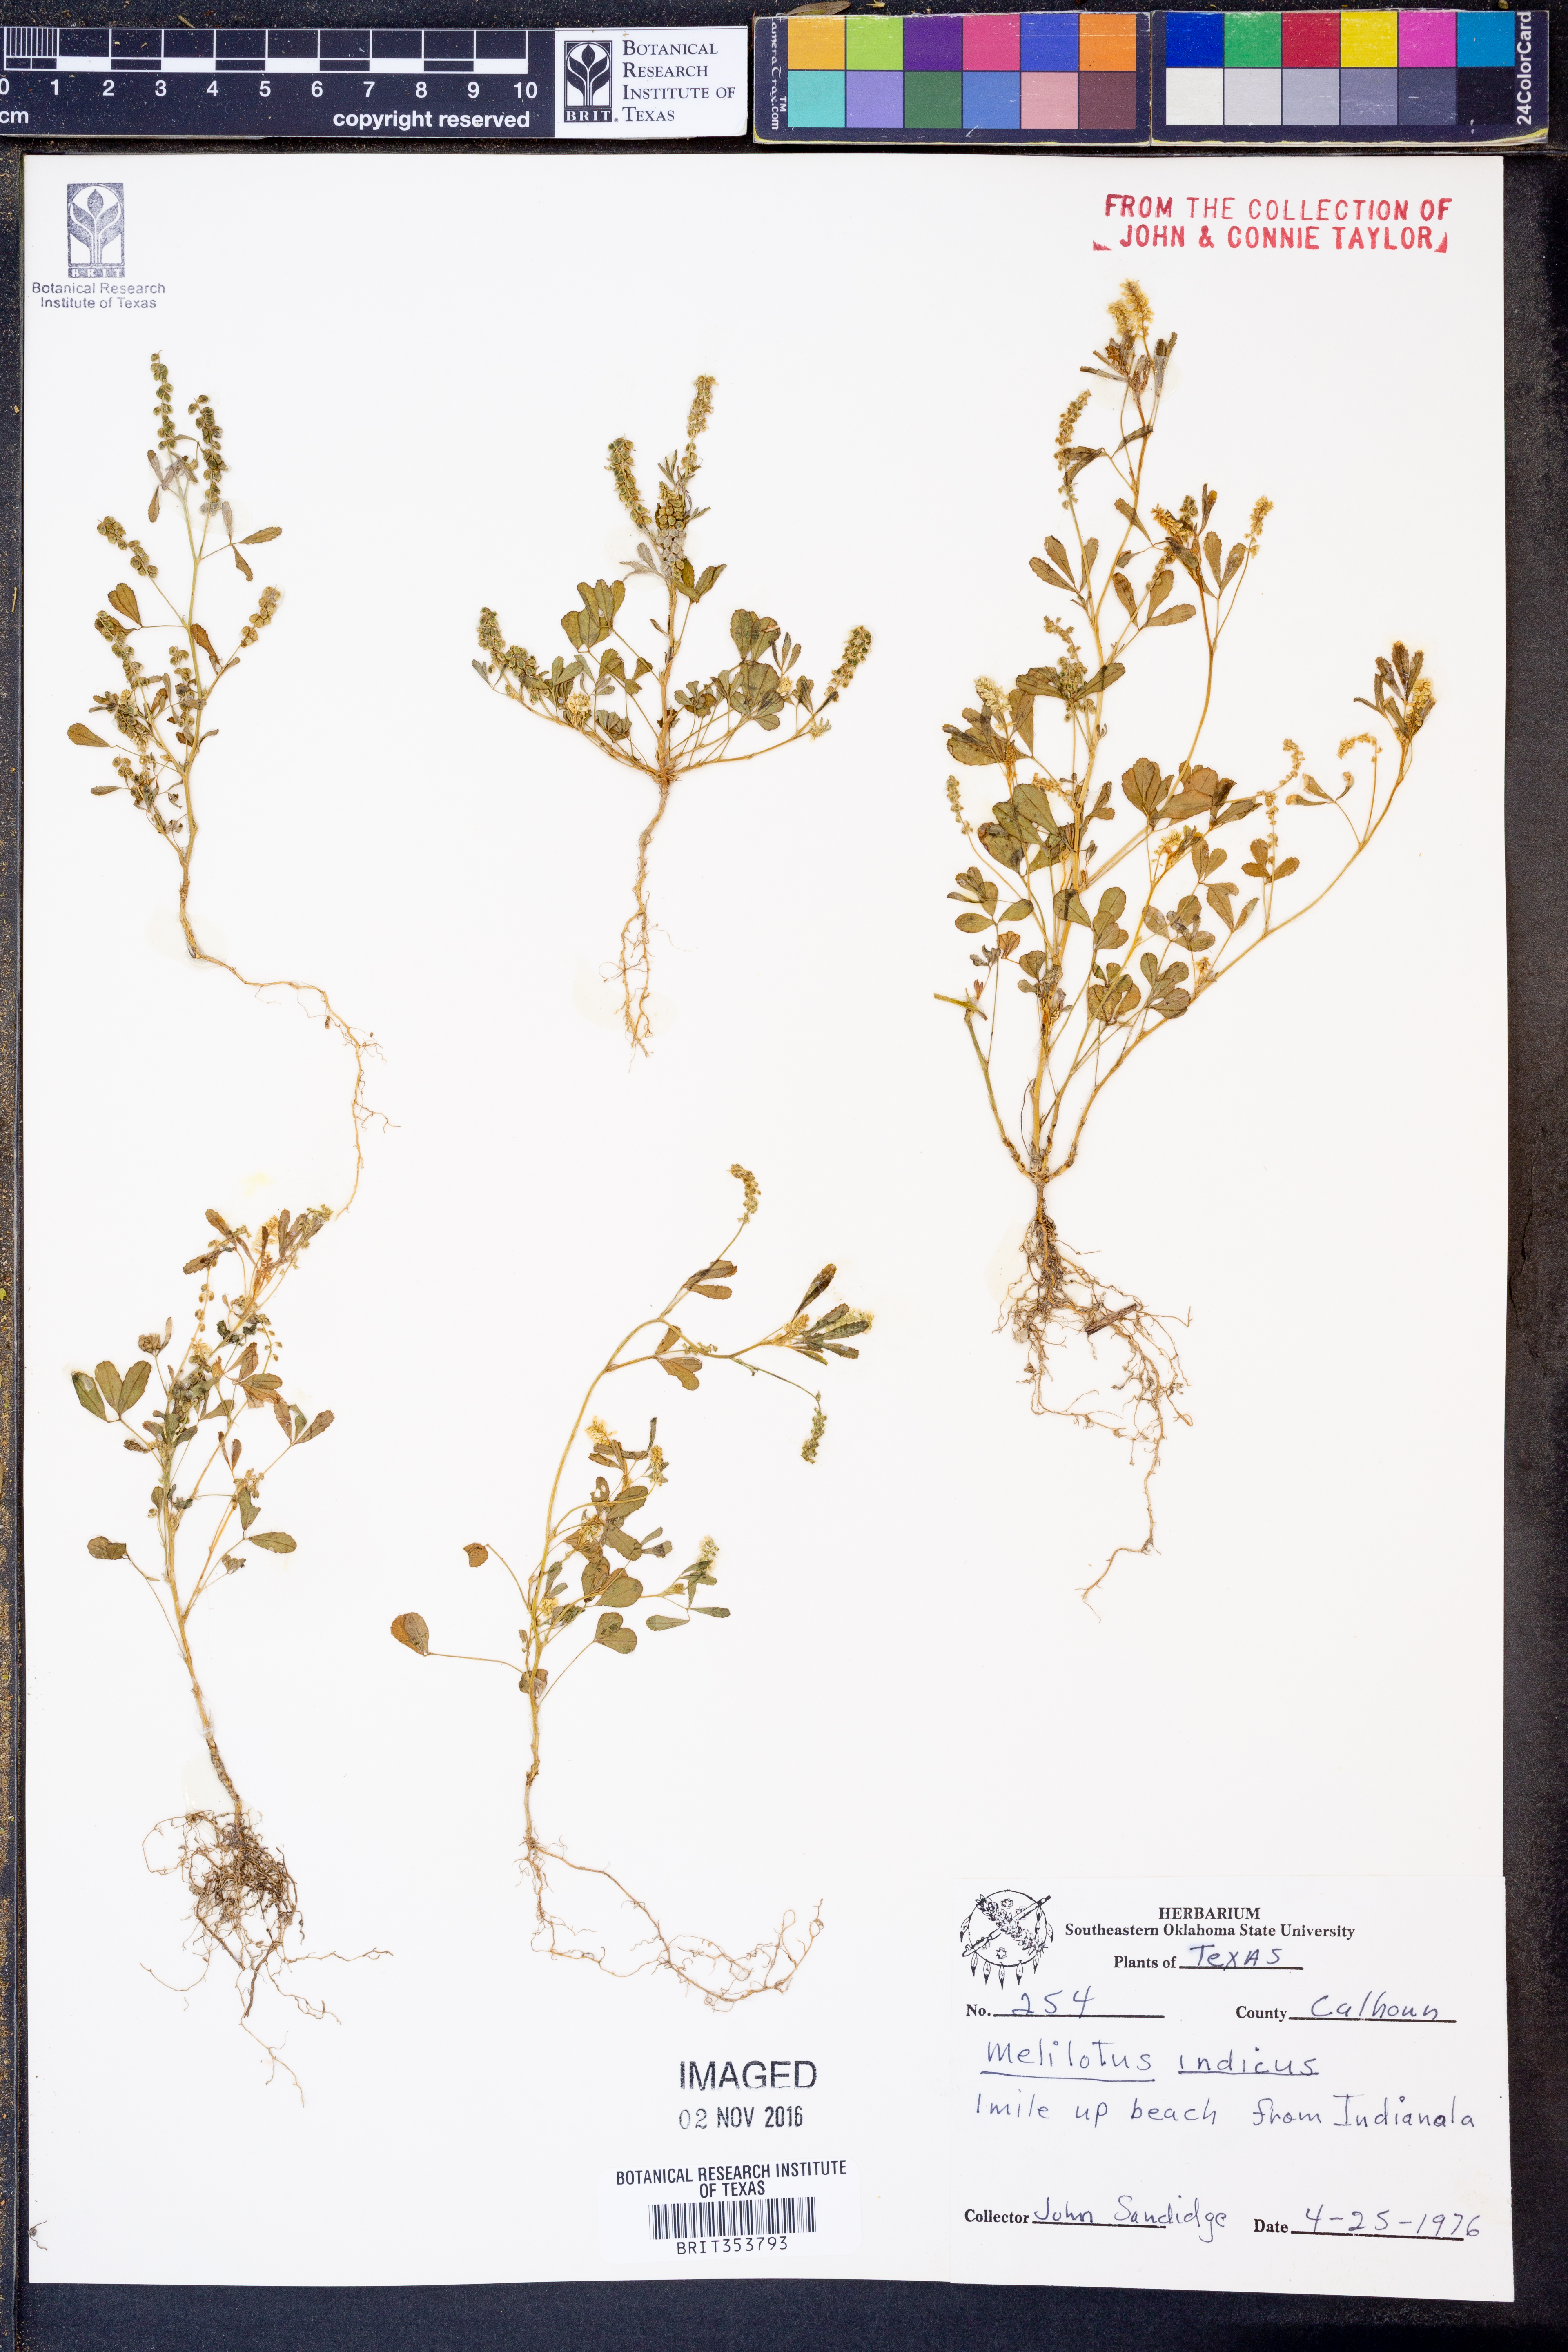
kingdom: Plantae
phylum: Tracheophyta
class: Magnoliopsida
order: Fabales
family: Fabaceae
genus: Melilotus
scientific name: Melilotus indicus
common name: Small melilot
